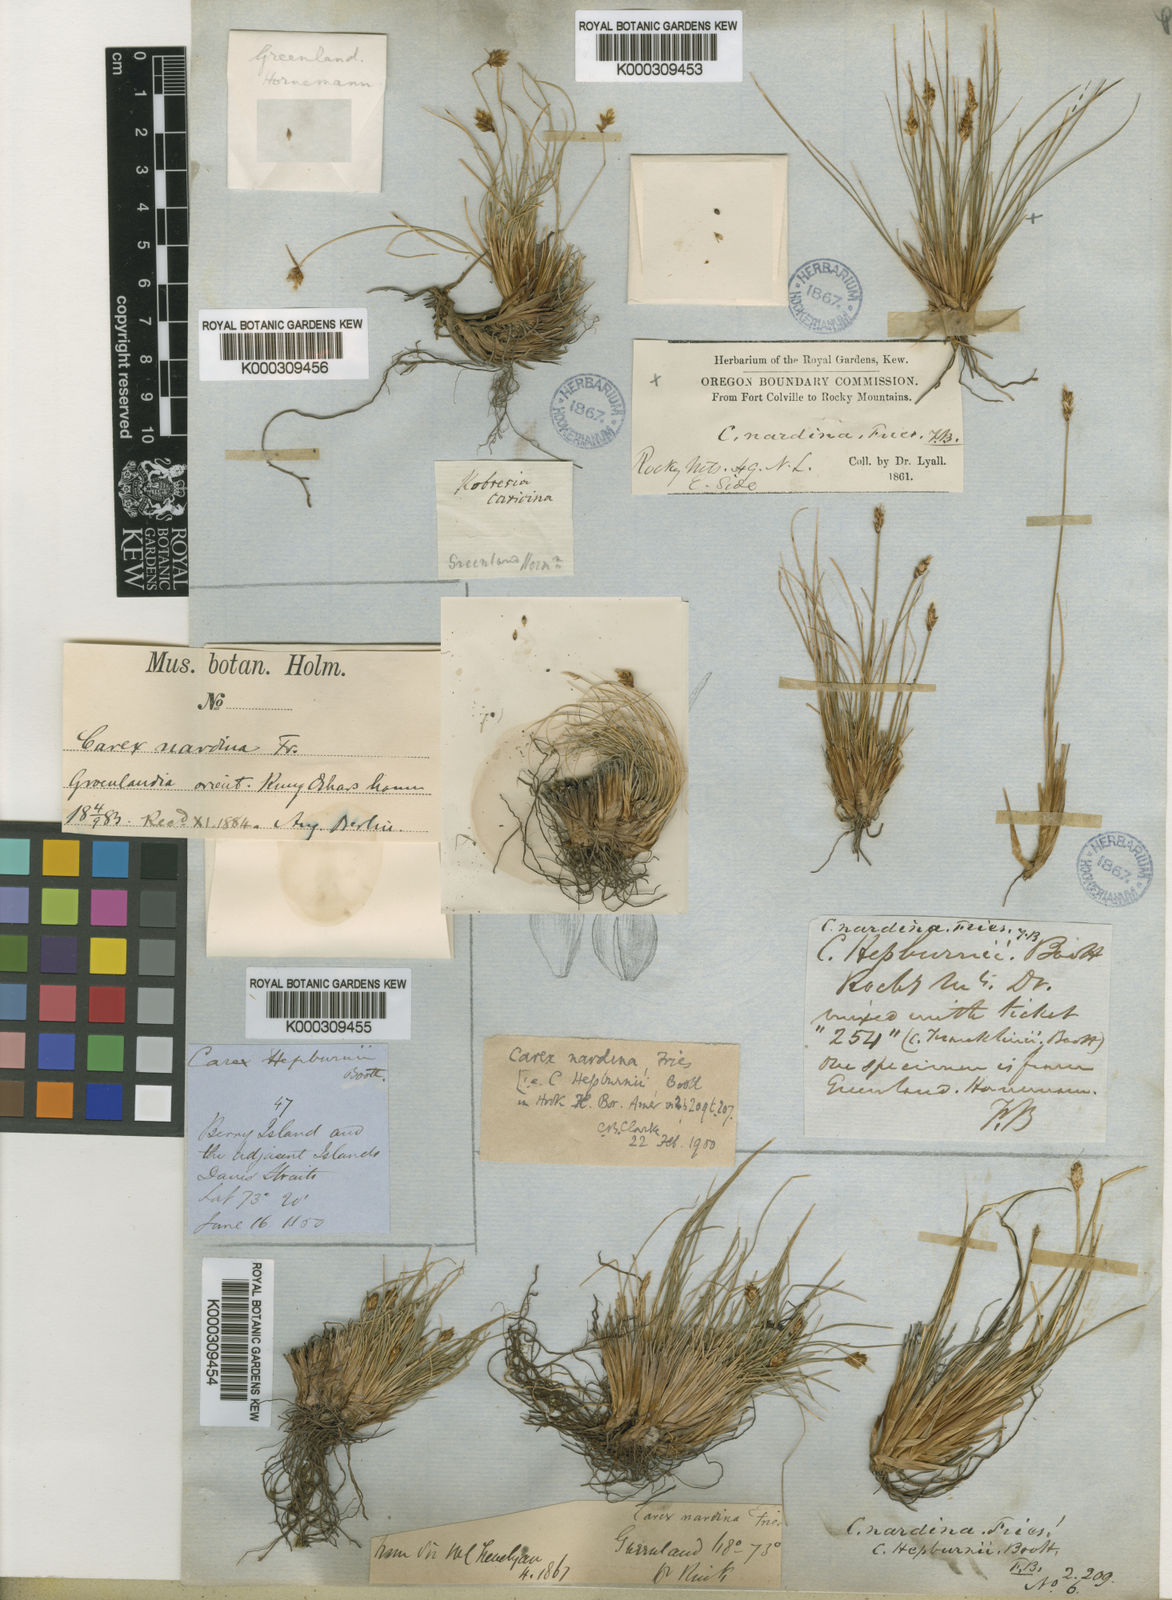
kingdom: Plantae
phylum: Tracheophyta
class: Liliopsida
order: Poales
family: Cyperaceae
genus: Carex
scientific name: Carex nardina
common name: Nard sedge
